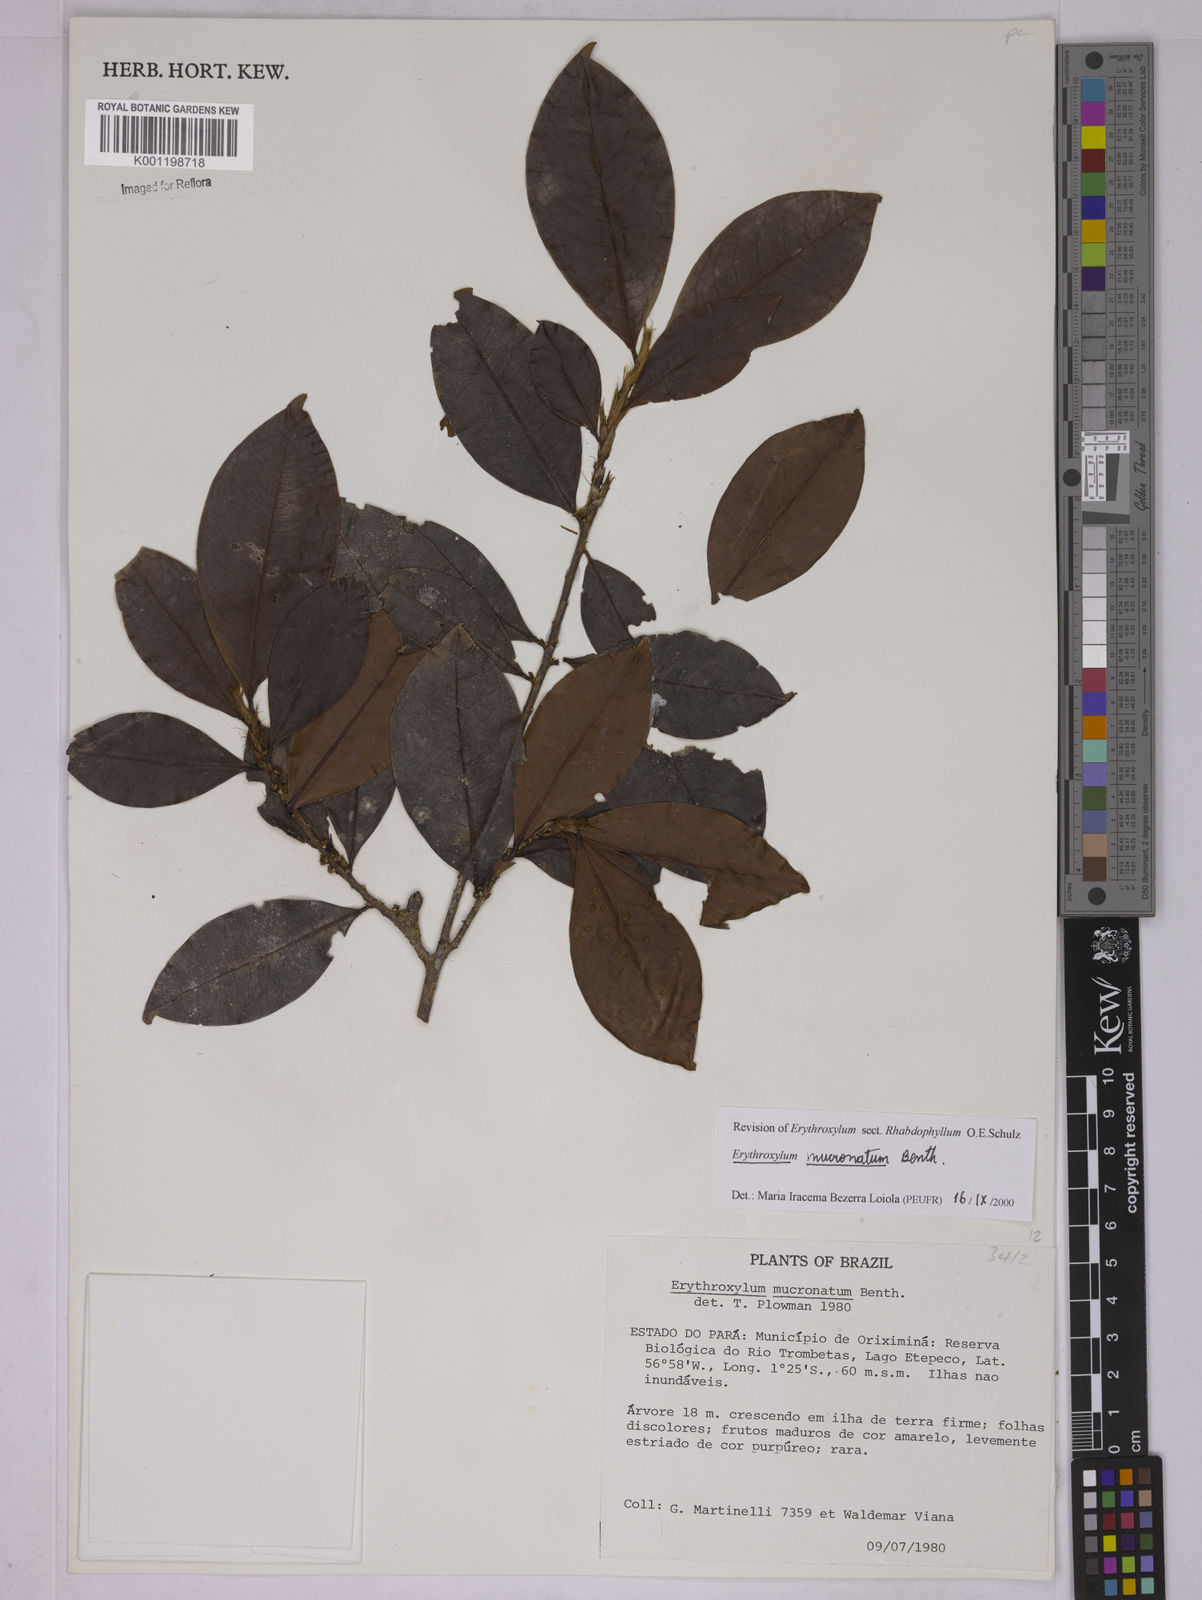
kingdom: Plantae
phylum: Tracheophyta
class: Magnoliopsida
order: Malpighiales
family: Erythroxylaceae
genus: Erythroxylum
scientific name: Erythroxylum mucronatum
